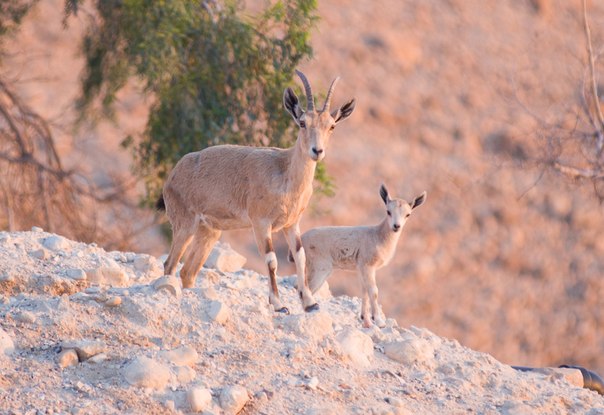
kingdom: Animalia
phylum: Chordata
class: Mammalia
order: Artiodactyla
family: Bovidae
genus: Capra
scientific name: Capra ibex
